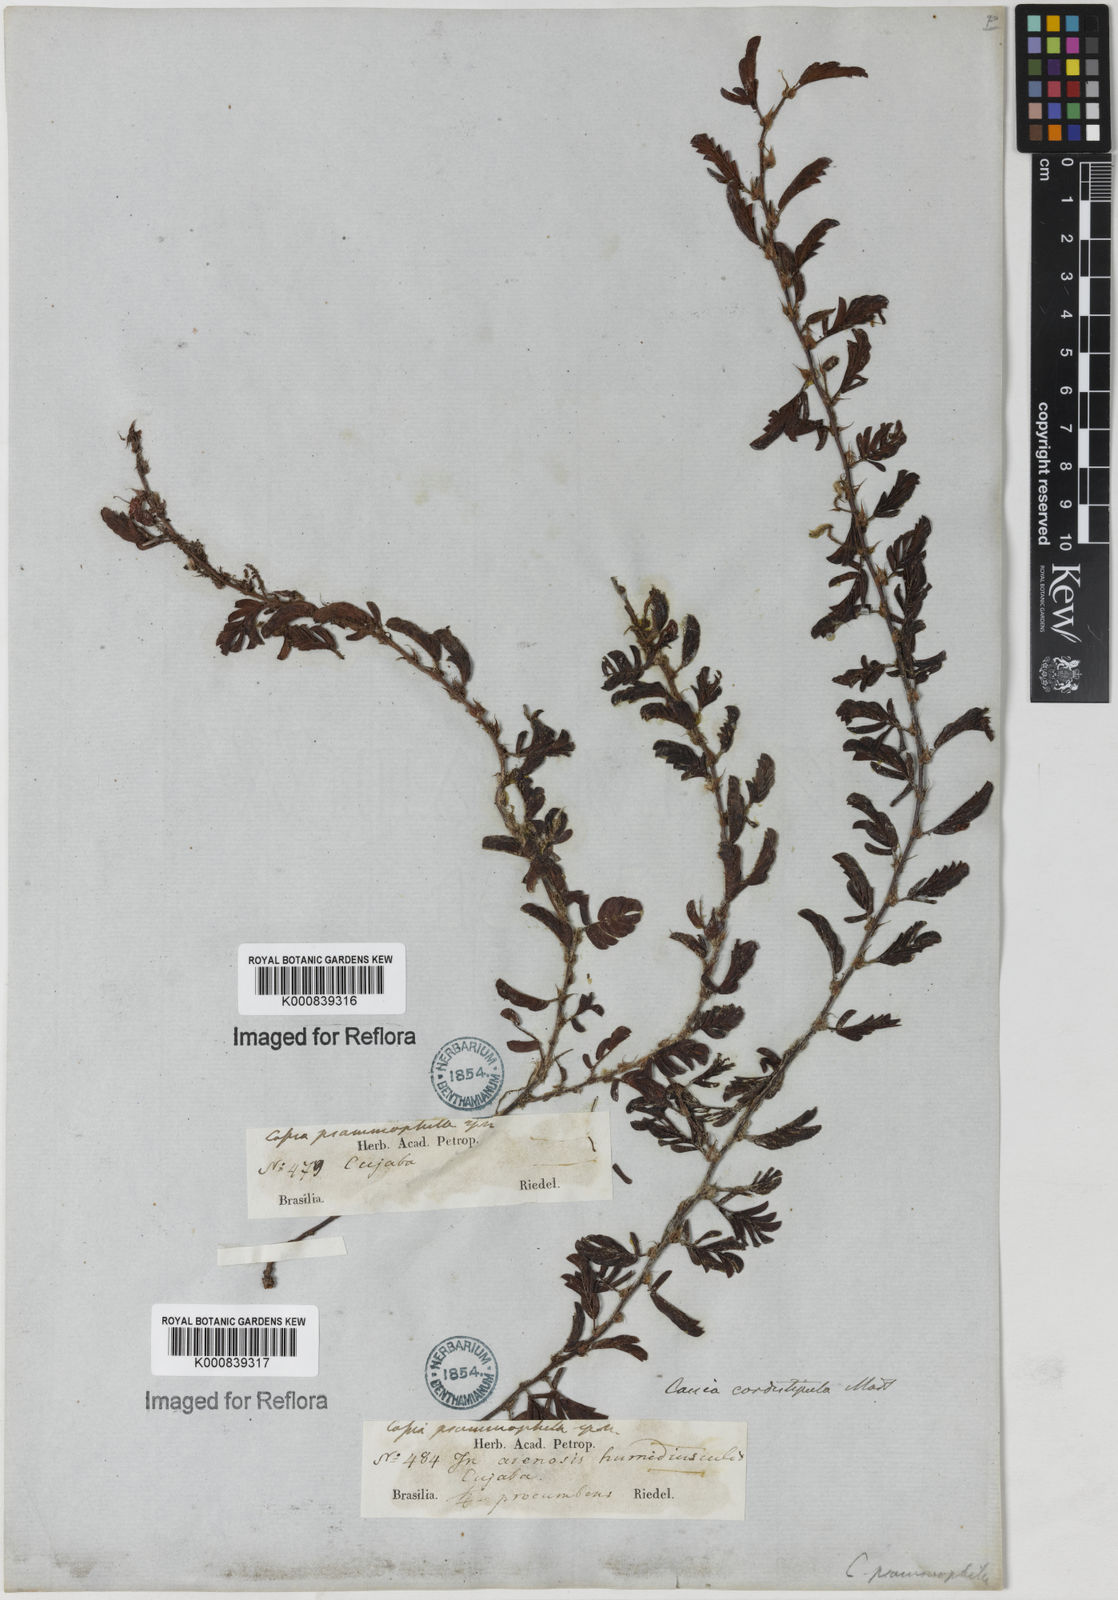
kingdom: Plantae
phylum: Tracheophyta
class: Magnoliopsida
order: Fabales
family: Fabaceae
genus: Chamaecrista
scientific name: Chamaecrista cordistipula
